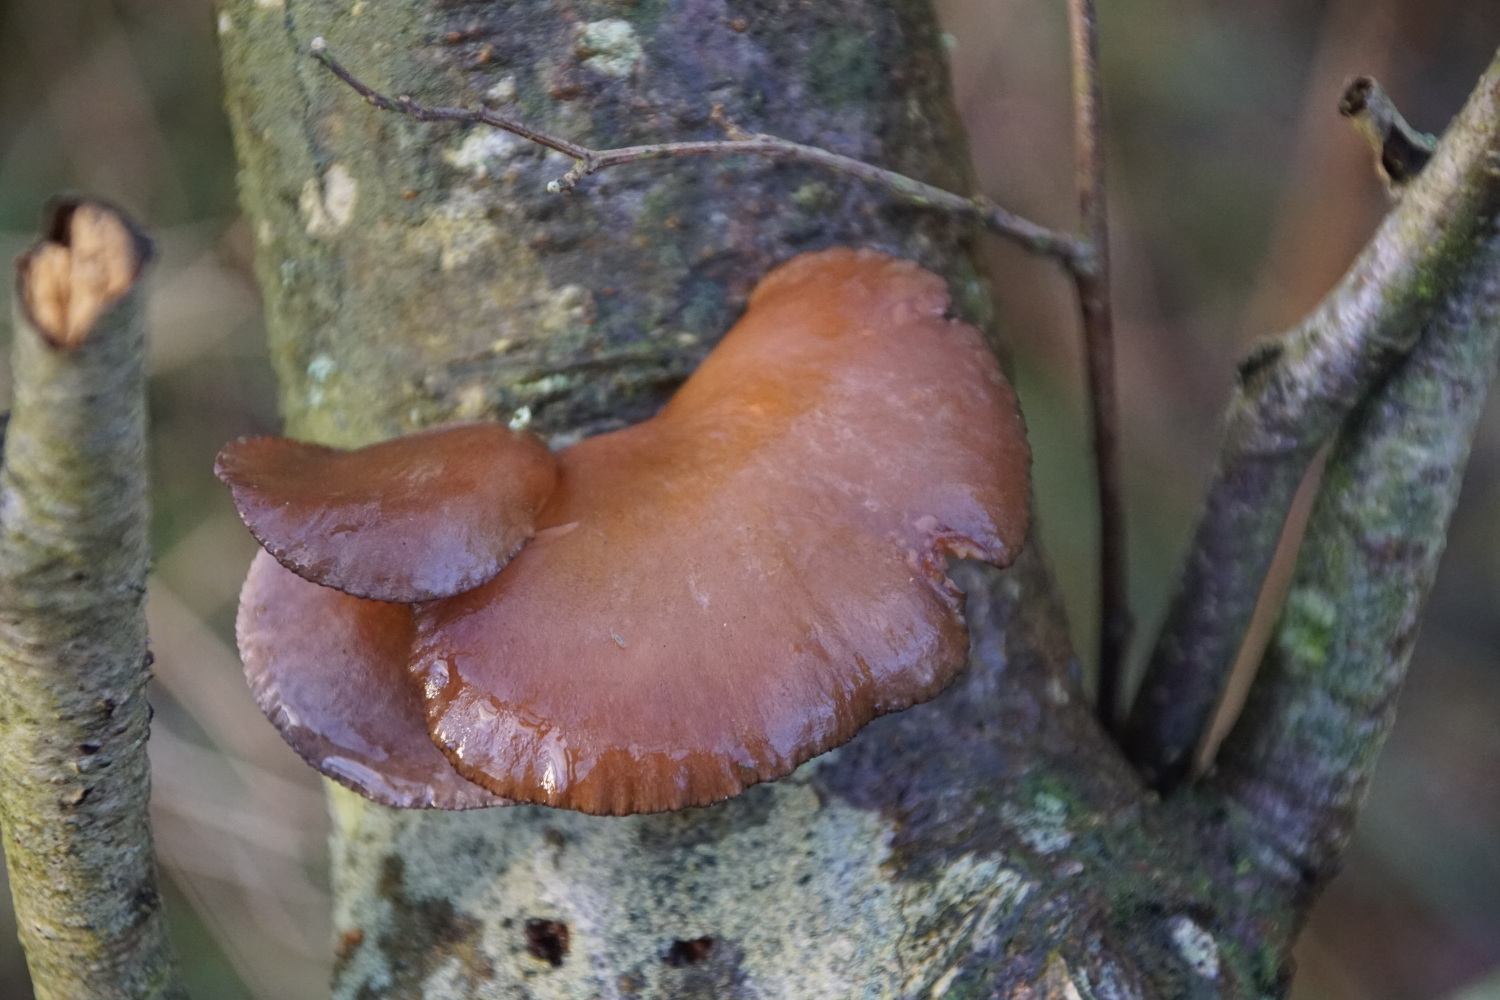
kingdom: Fungi
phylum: Basidiomycota
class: Agaricomycetes
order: Agaricales
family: Sarcomyxaceae
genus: Sarcomyxa
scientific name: Sarcomyxa serotina
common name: gummihat
